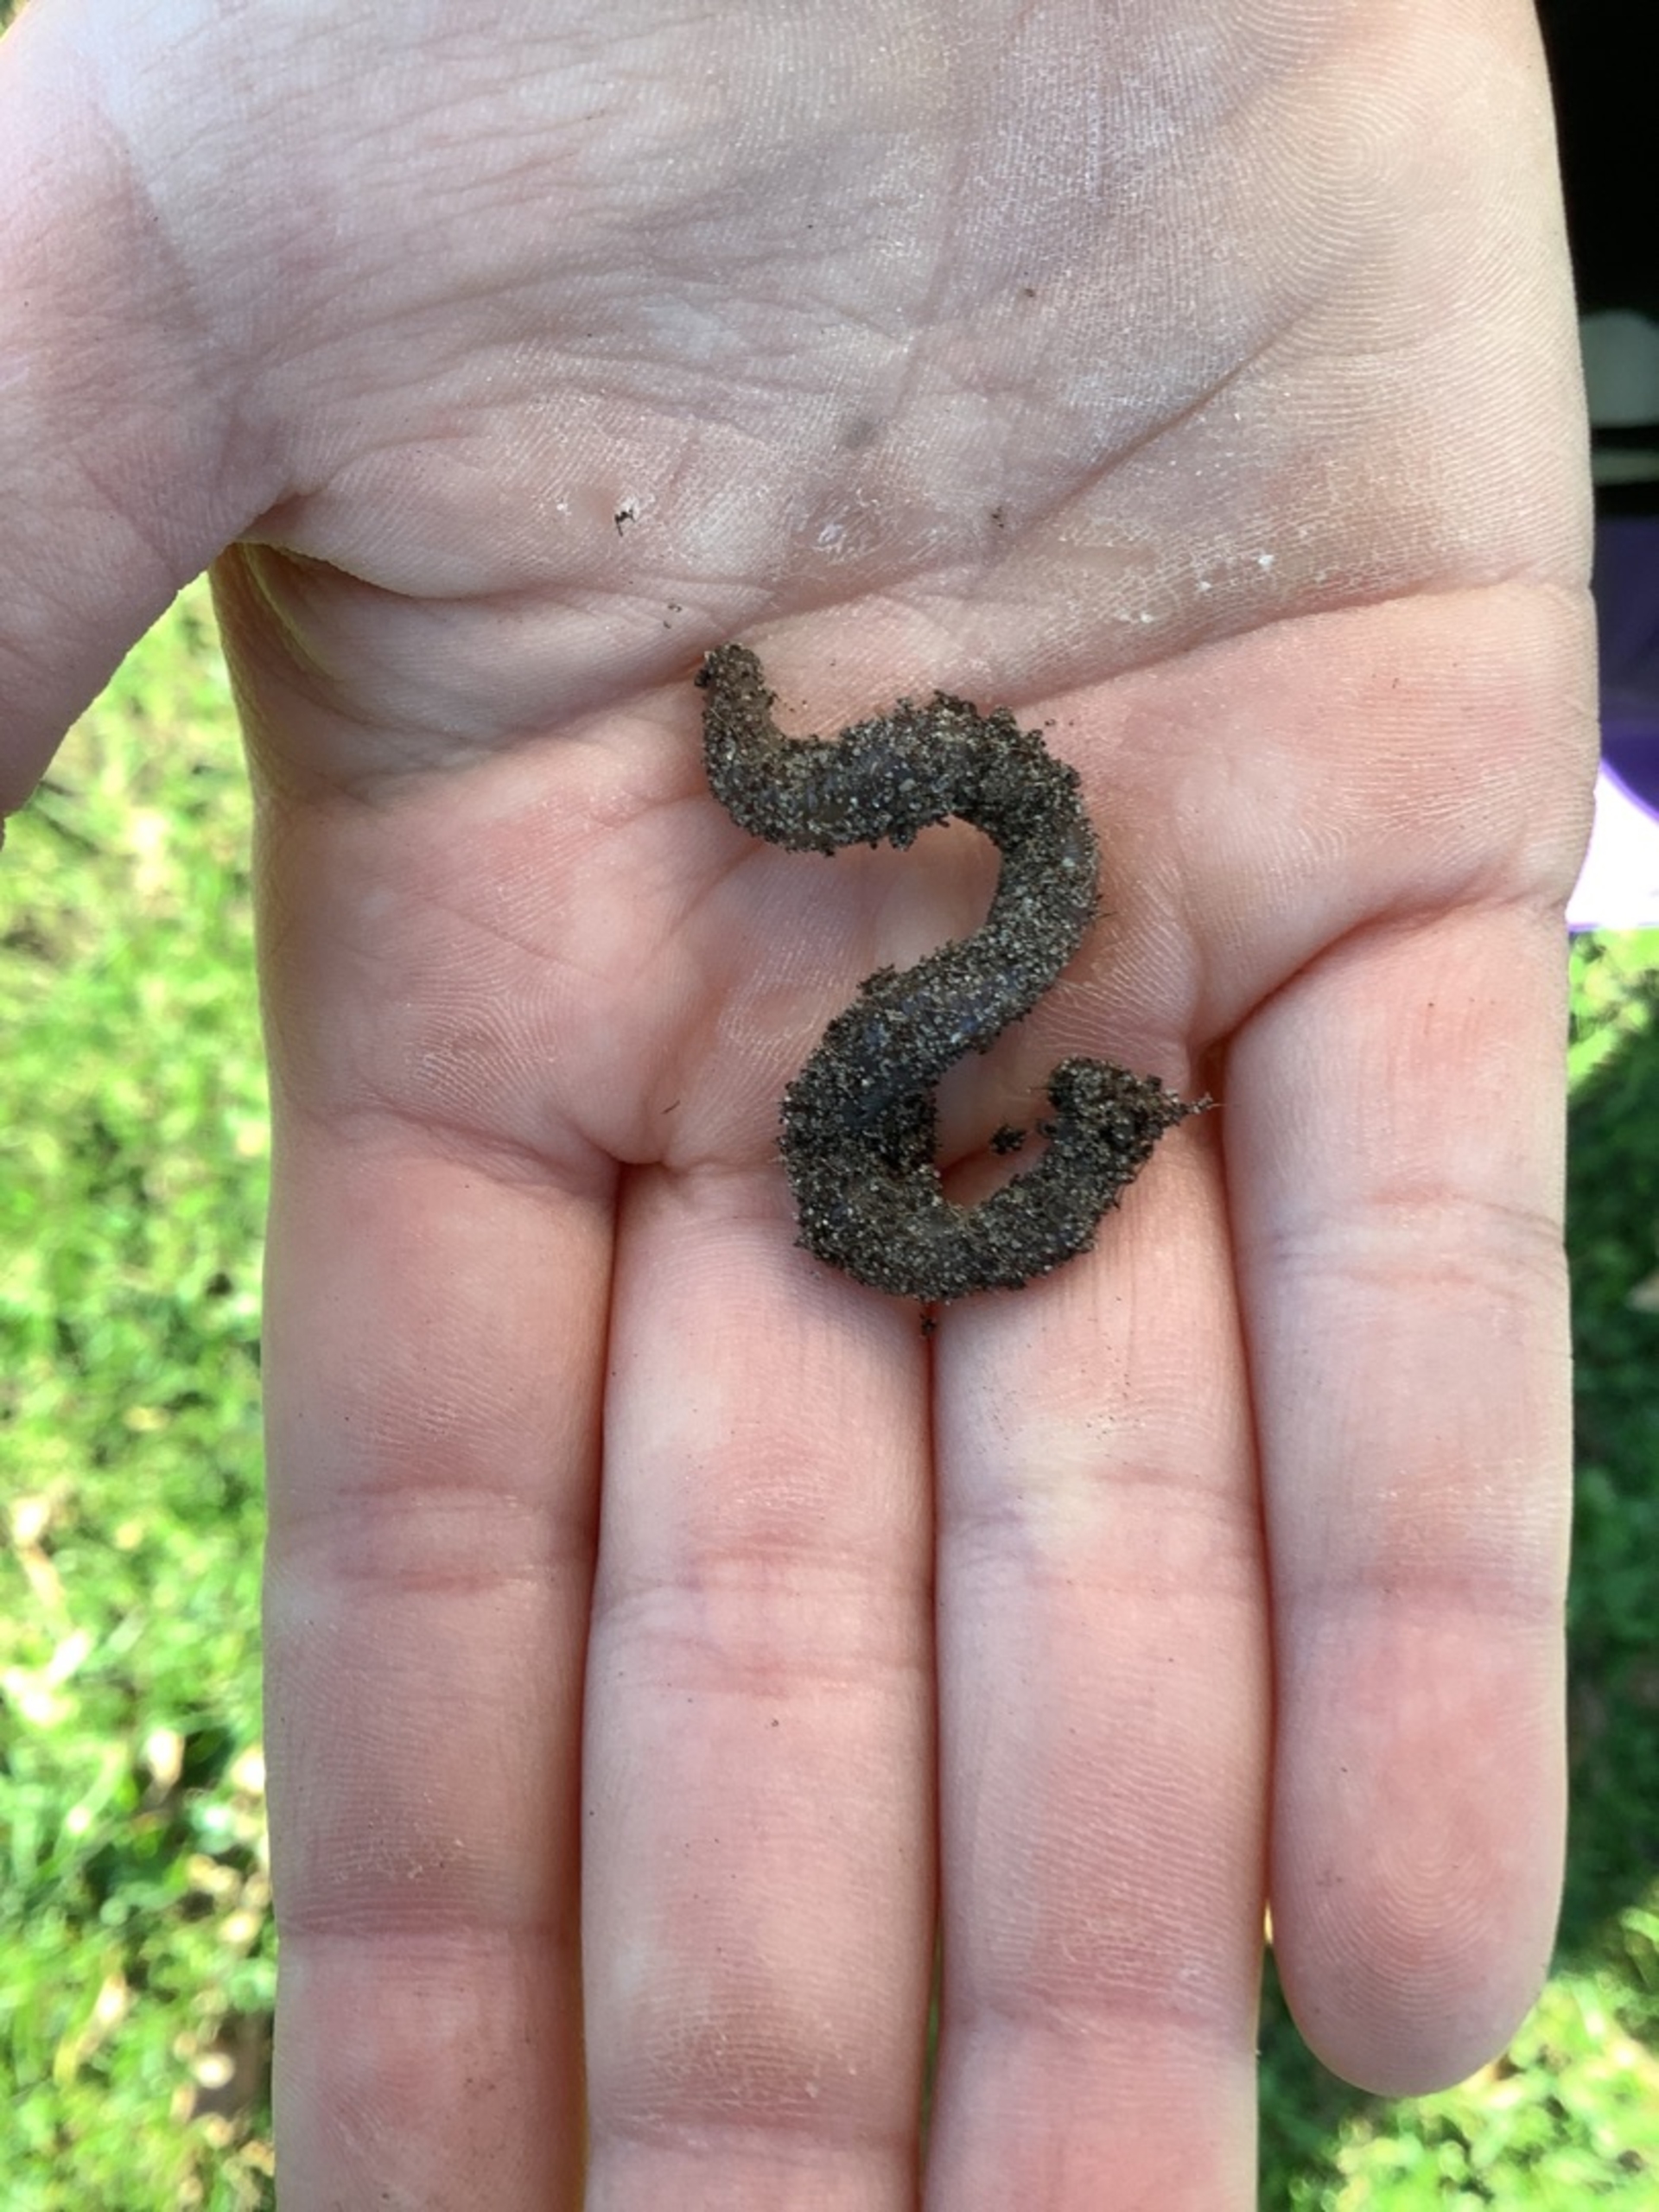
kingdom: Animalia
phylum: Annelida
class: Clitellata
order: Crassiclitellata
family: Lumbricidae
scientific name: Lumbricidae
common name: Regnorme
